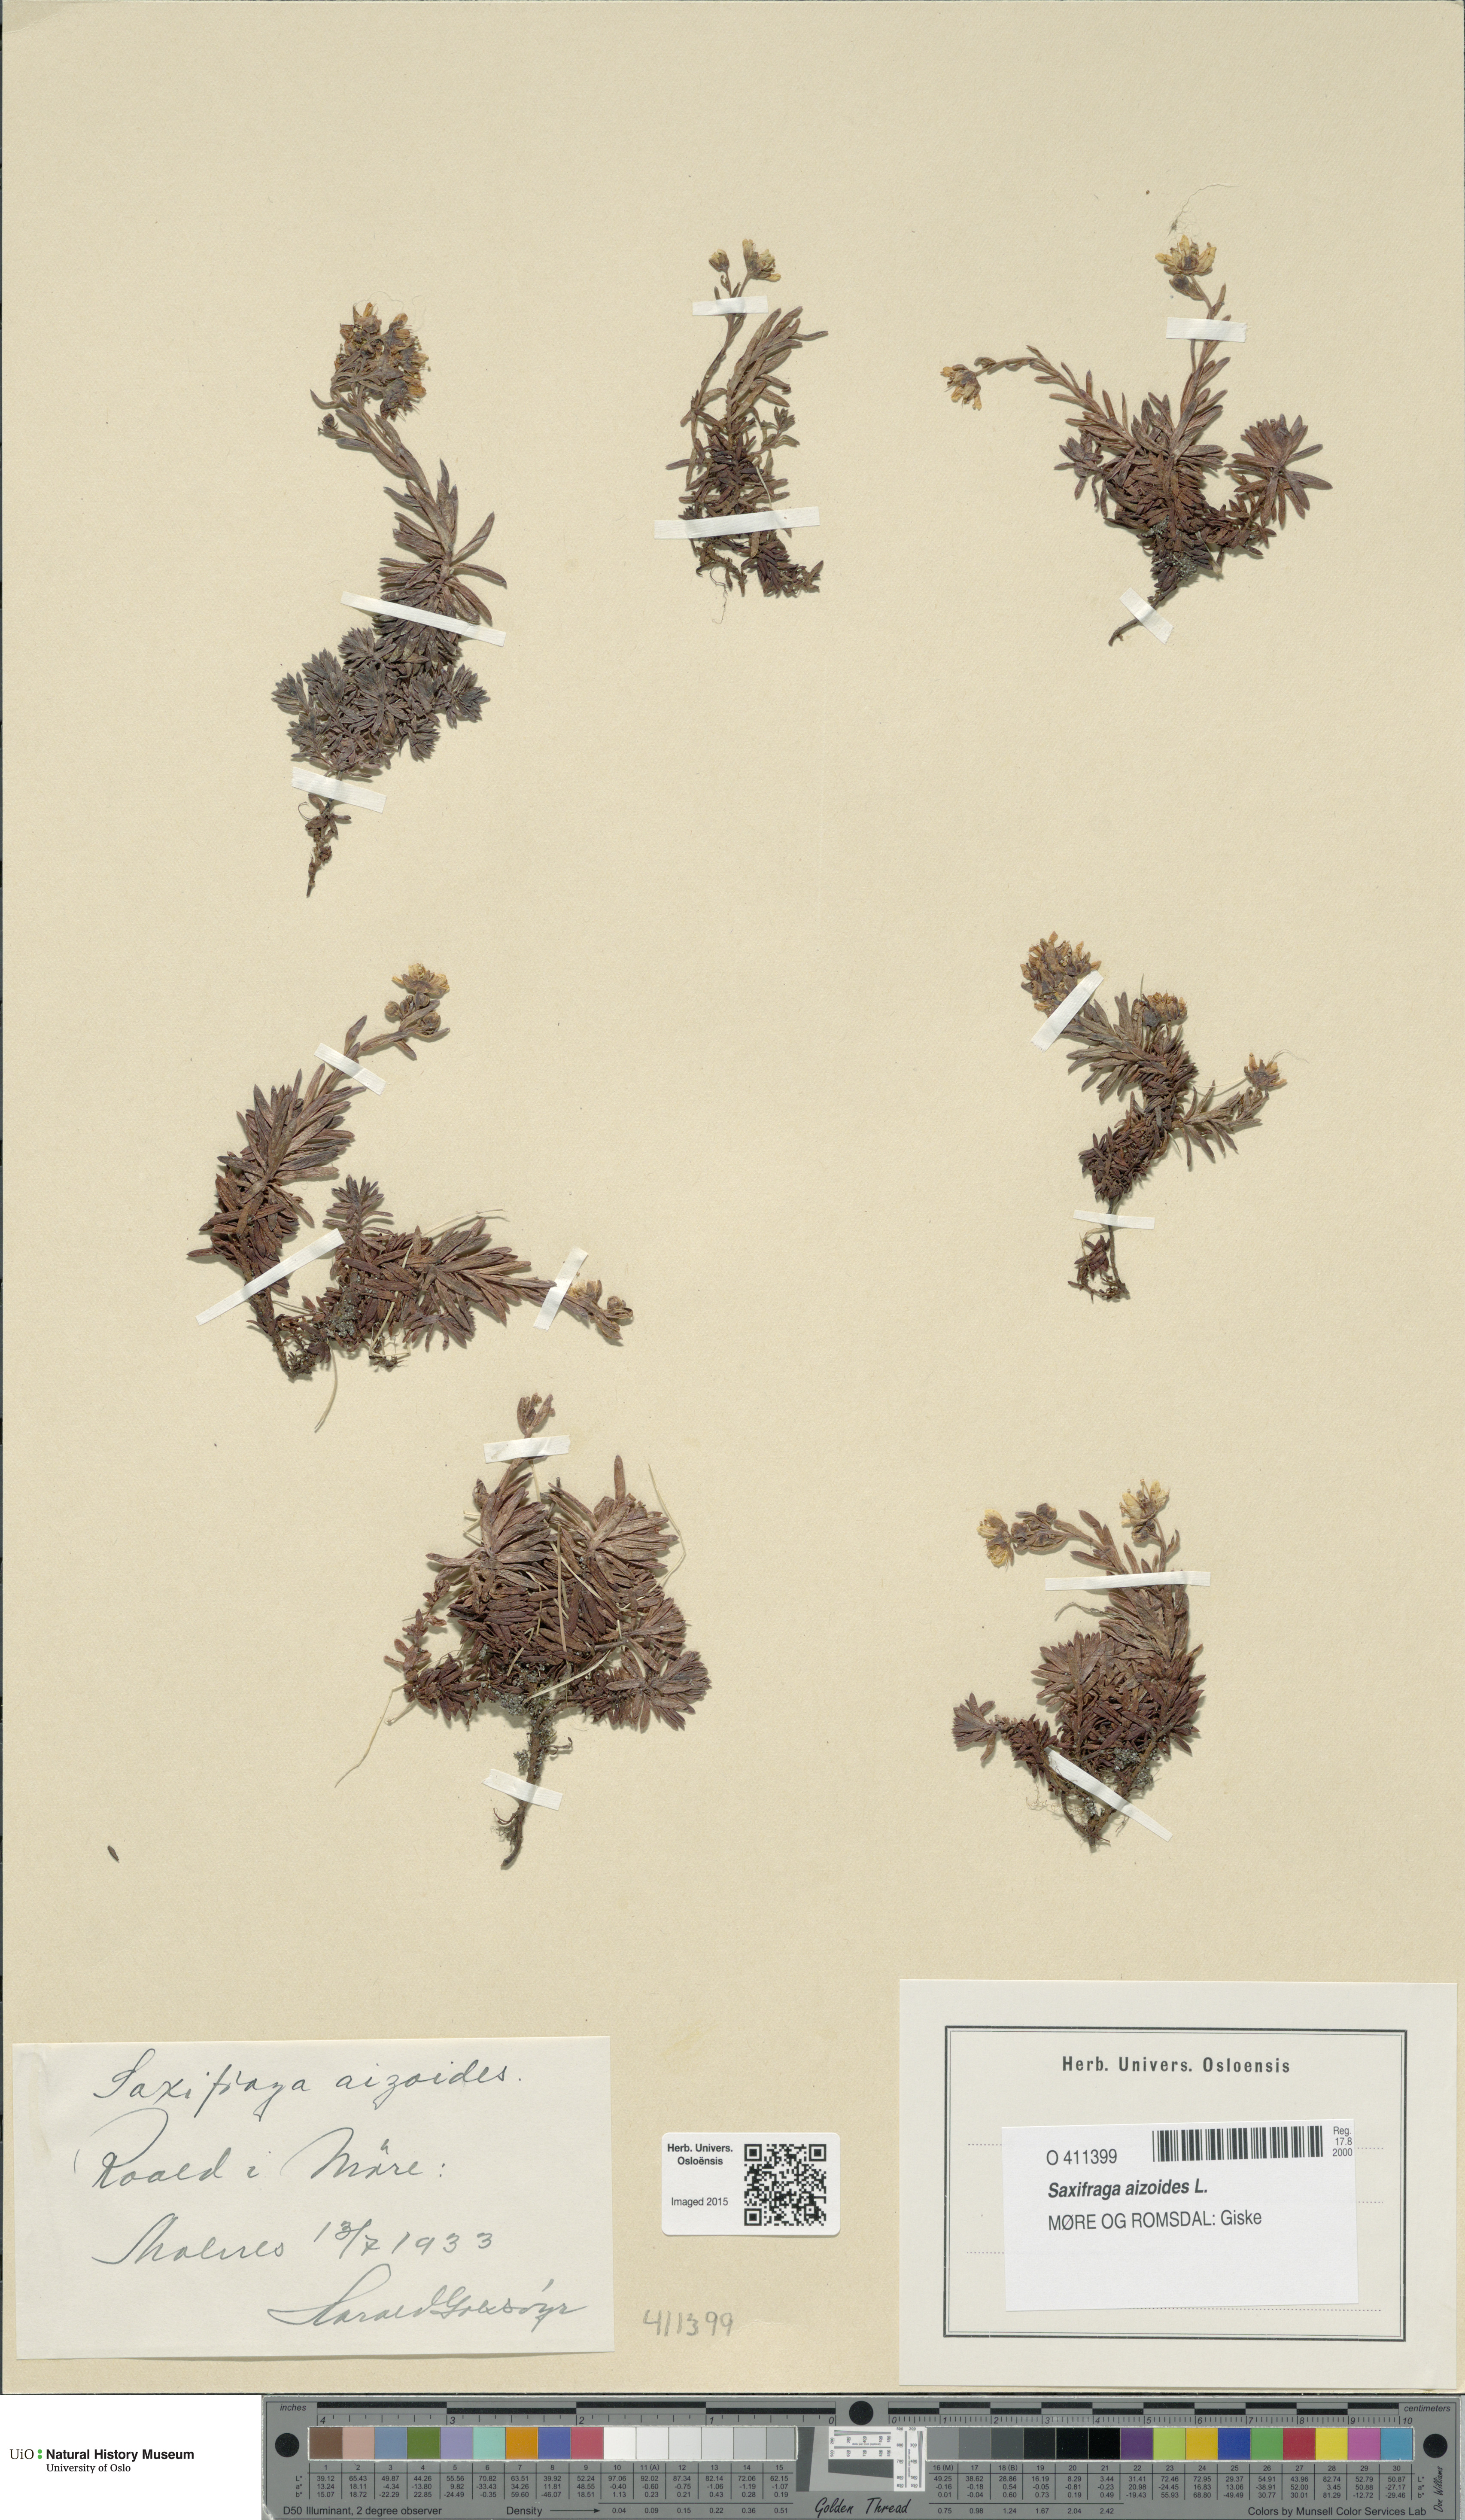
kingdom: Plantae
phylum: Tracheophyta
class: Magnoliopsida
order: Saxifragales
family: Saxifragaceae
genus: Saxifraga
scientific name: Saxifraga aizoides
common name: Yellow mountain saxifrage
